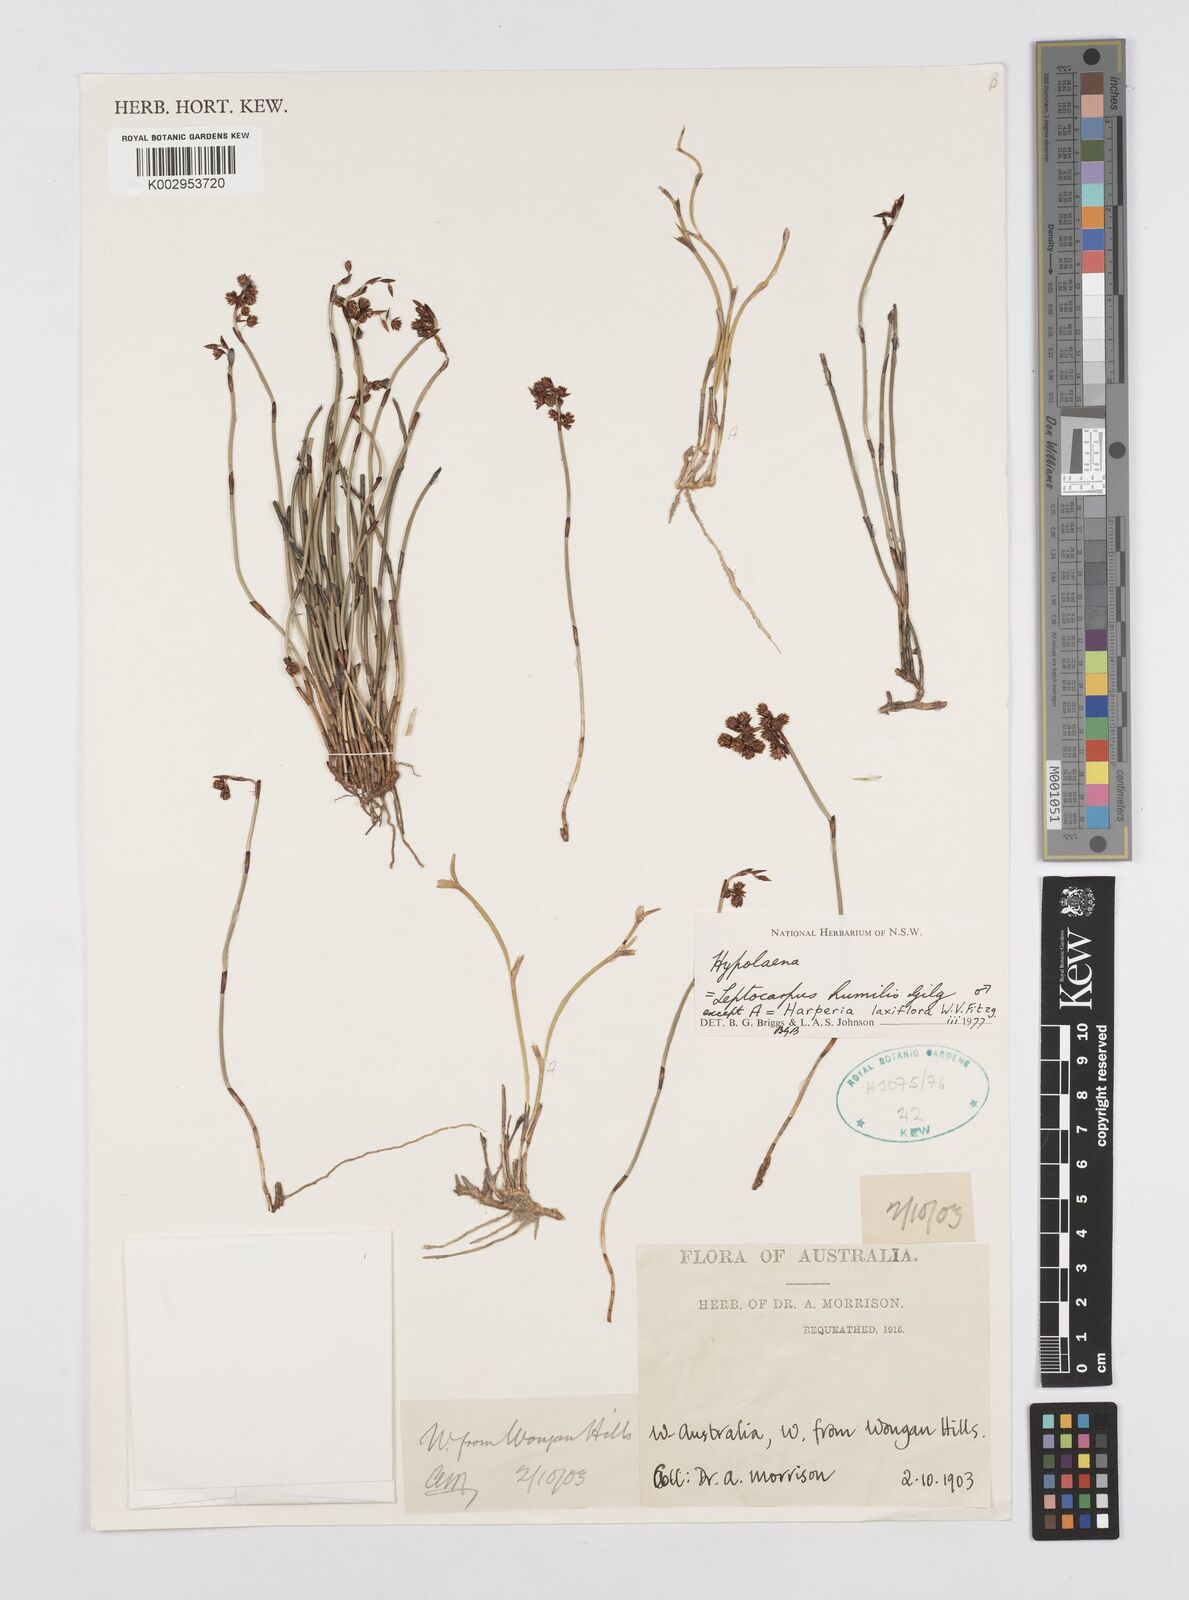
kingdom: Plantae
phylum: Tracheophyta
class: Liliopsida
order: Poales
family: Restionaceae
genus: Hypolaena
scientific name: Hypolaena
